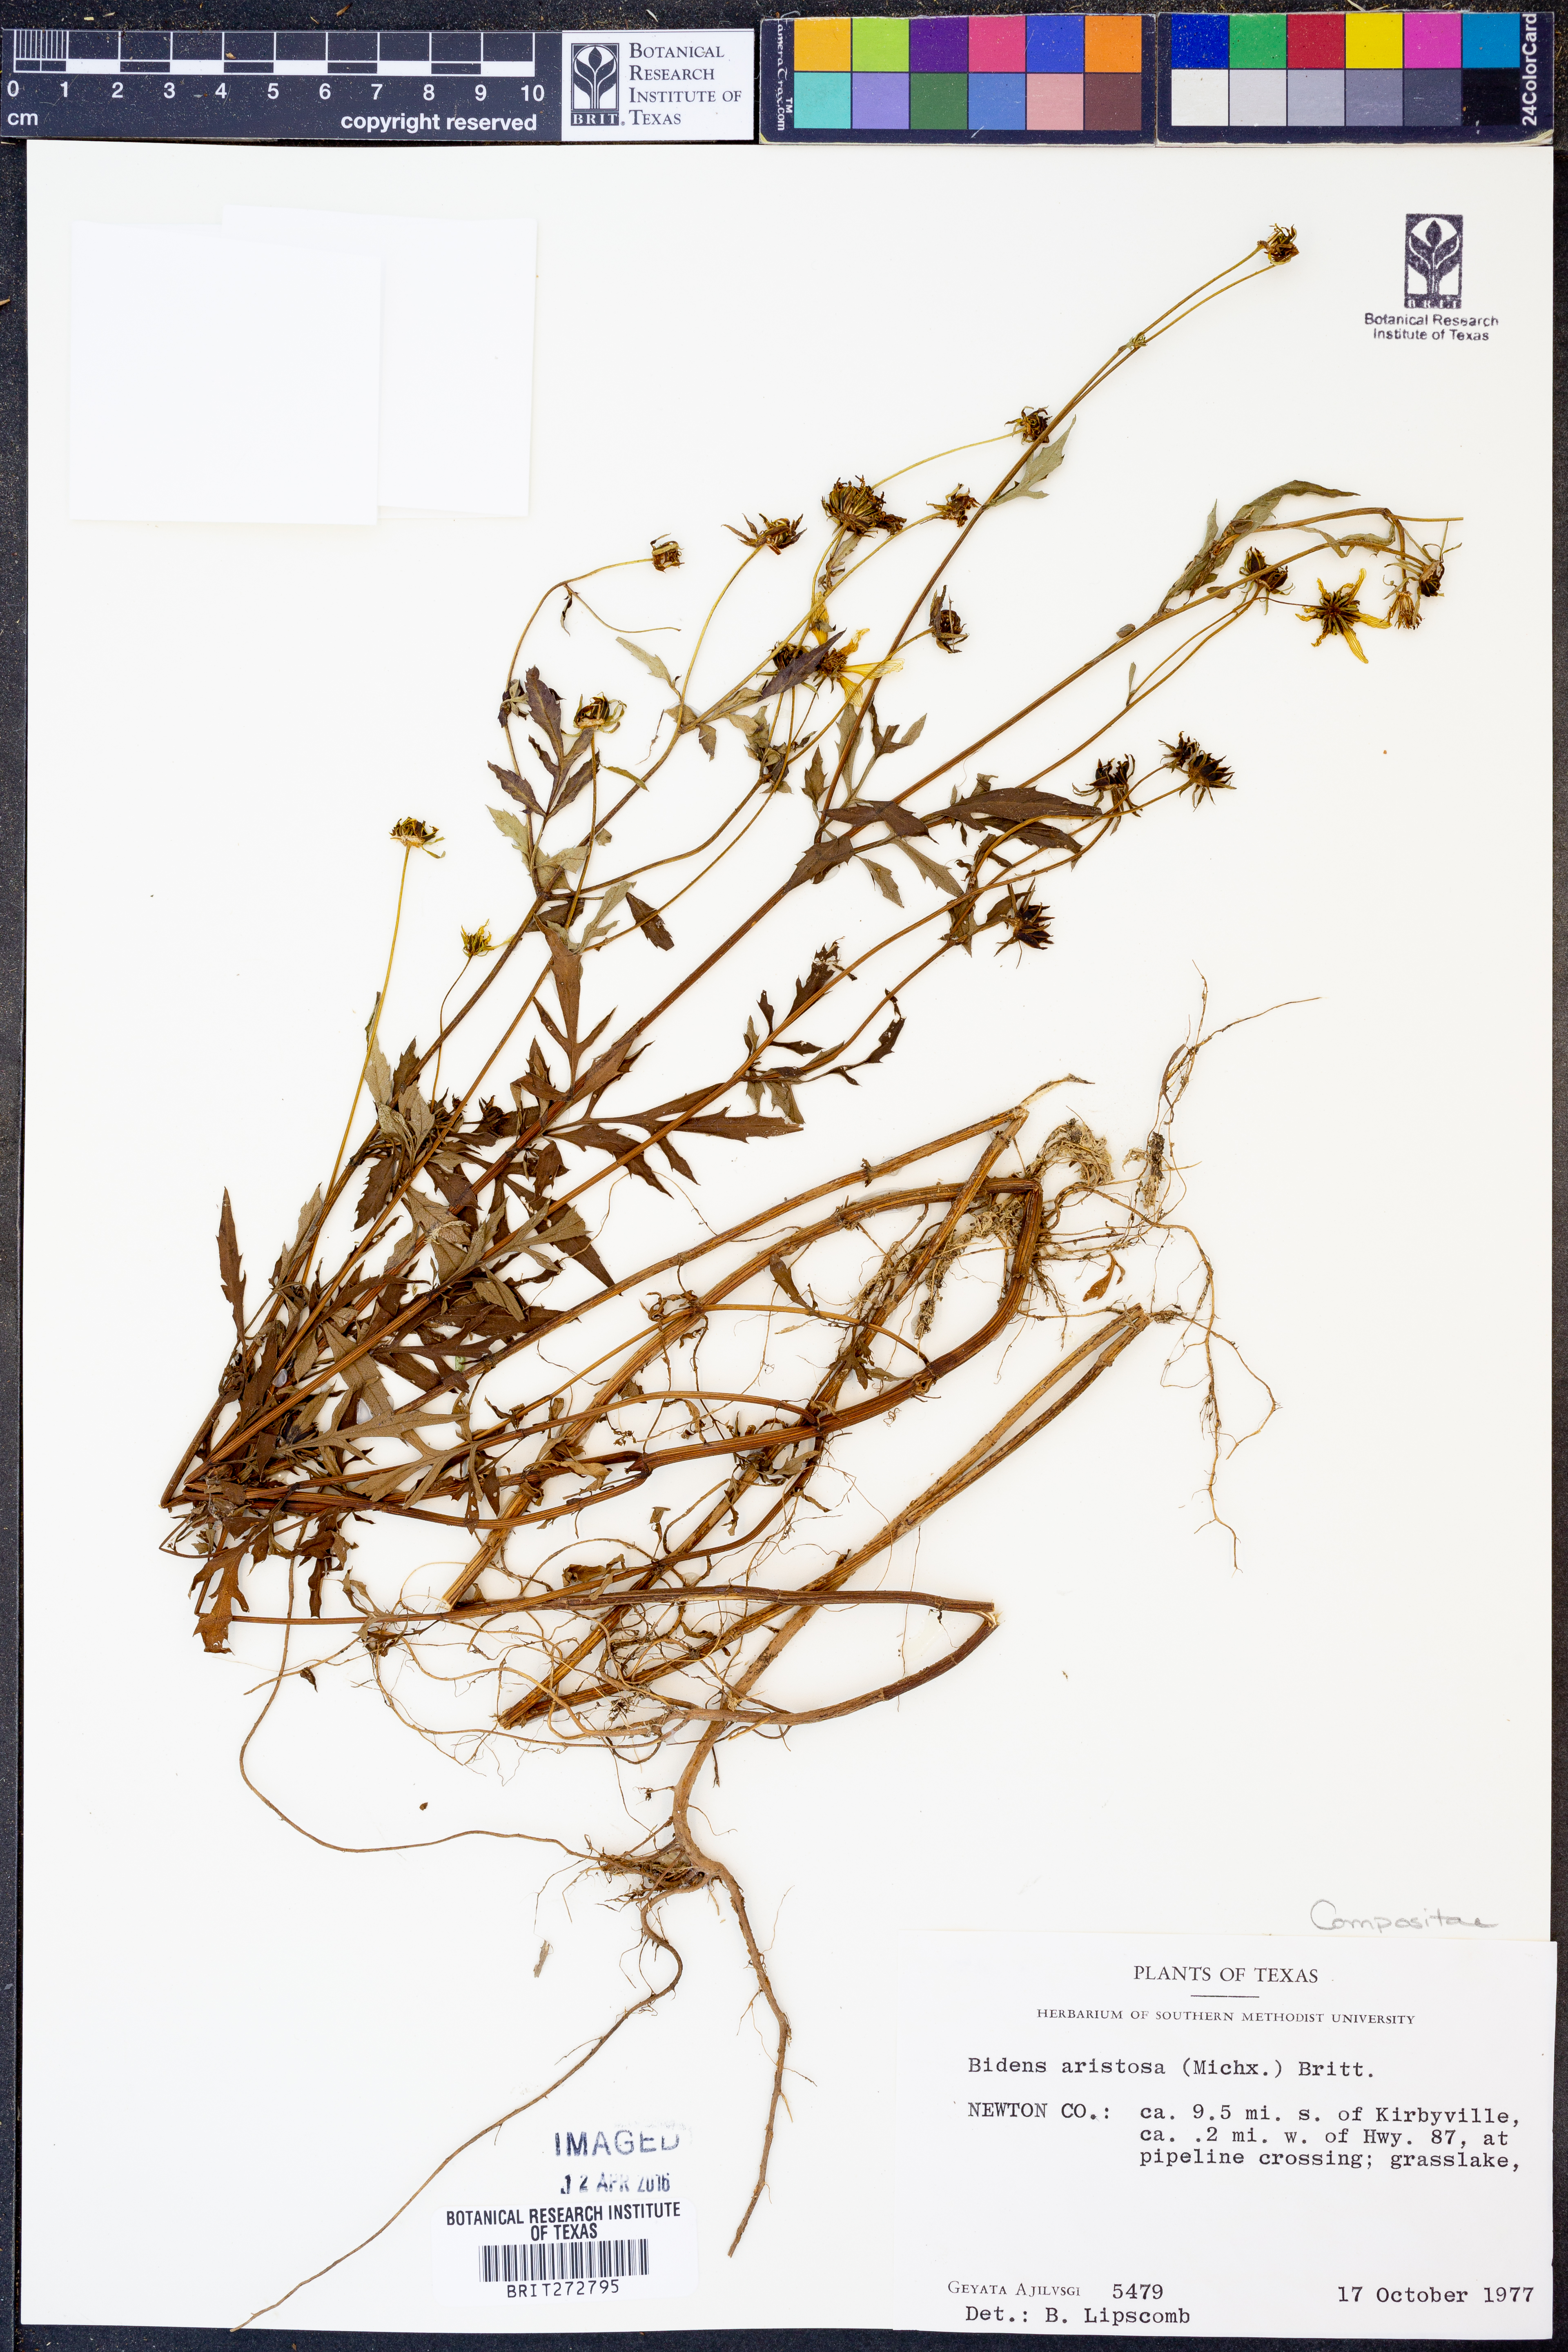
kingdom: Plantae
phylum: Tracheophyta
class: Magnoliopsida
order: Asterales
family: Asteraceae
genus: Bidens
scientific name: Bidens aristosa
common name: Western tickseed
